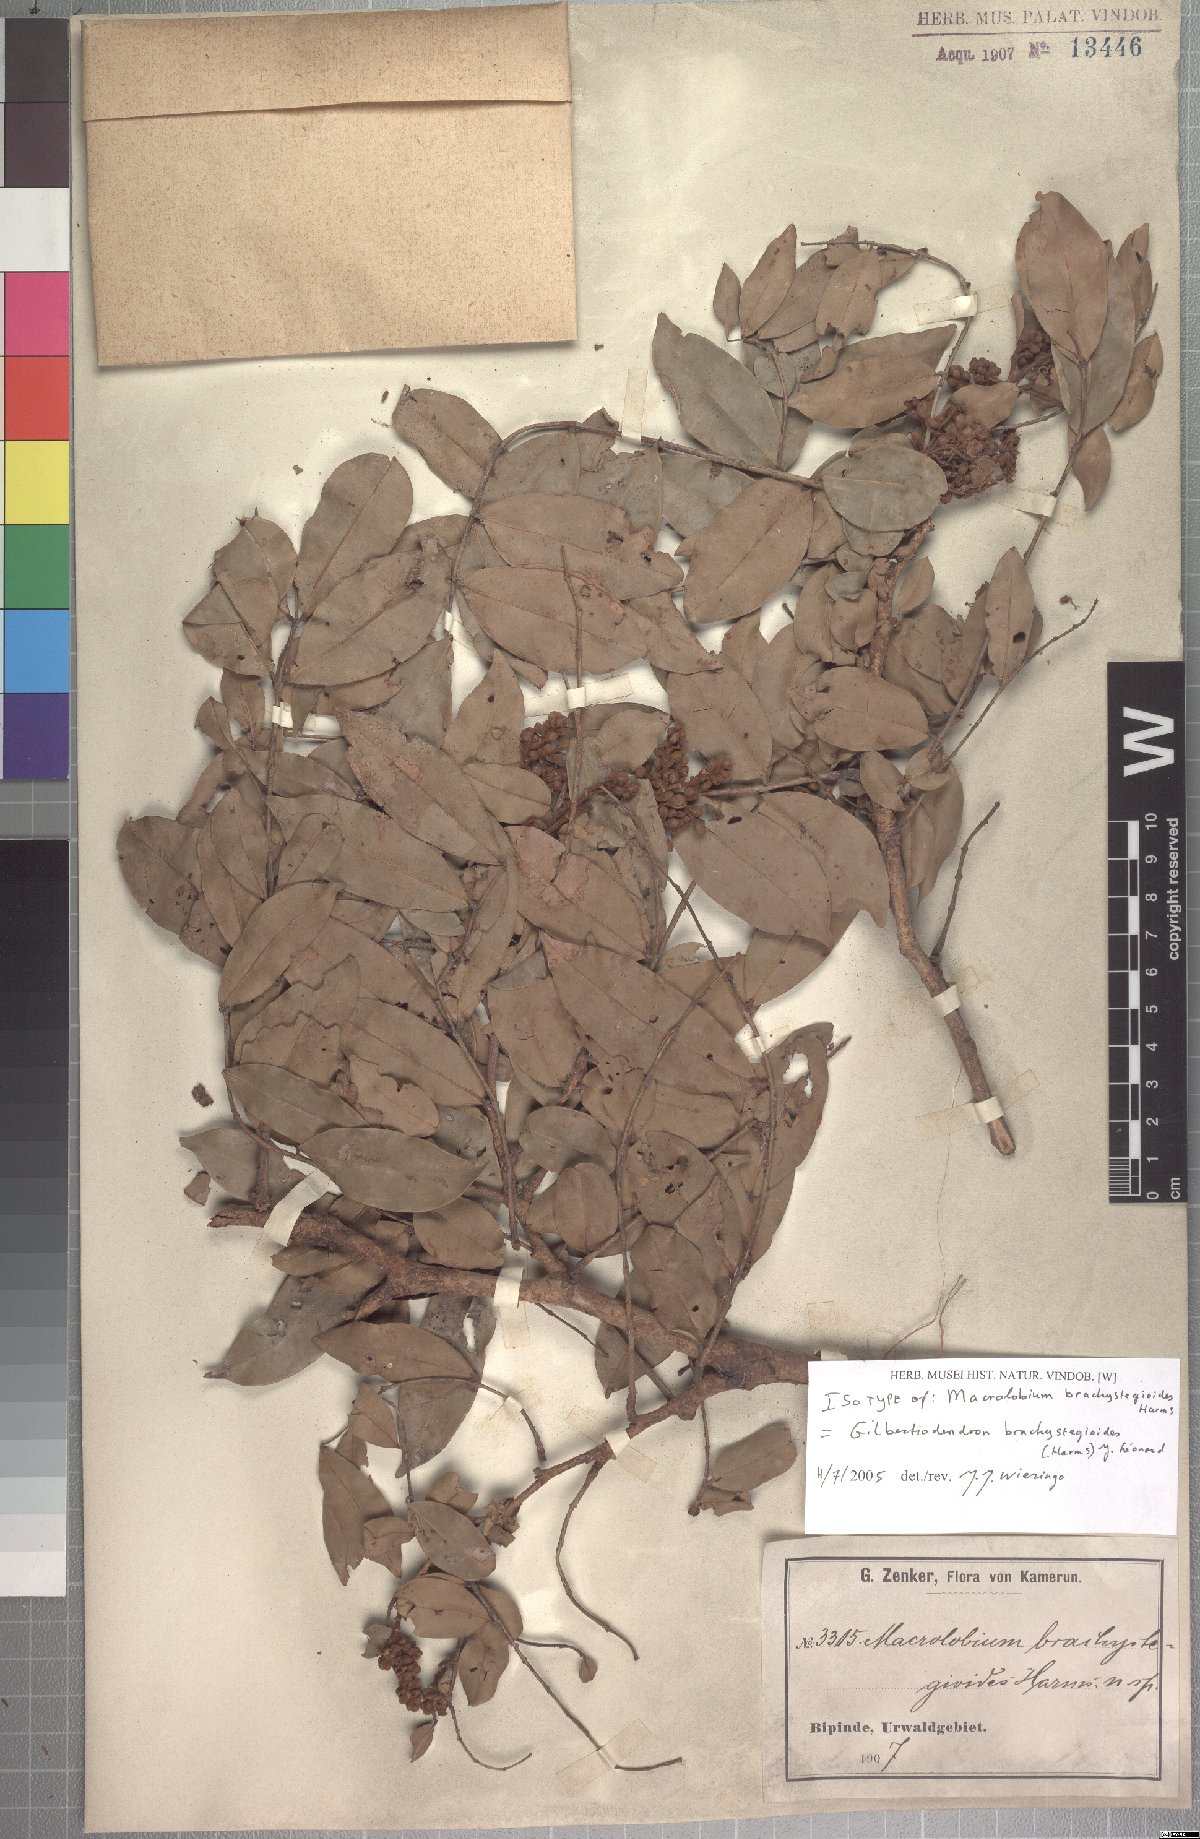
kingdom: Plantae
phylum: Tracheophyta
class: Magnoliopsida
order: Fabales
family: Fabaceae
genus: Gilbertiodendron
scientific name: Gilbertiodendron brachystegioides
